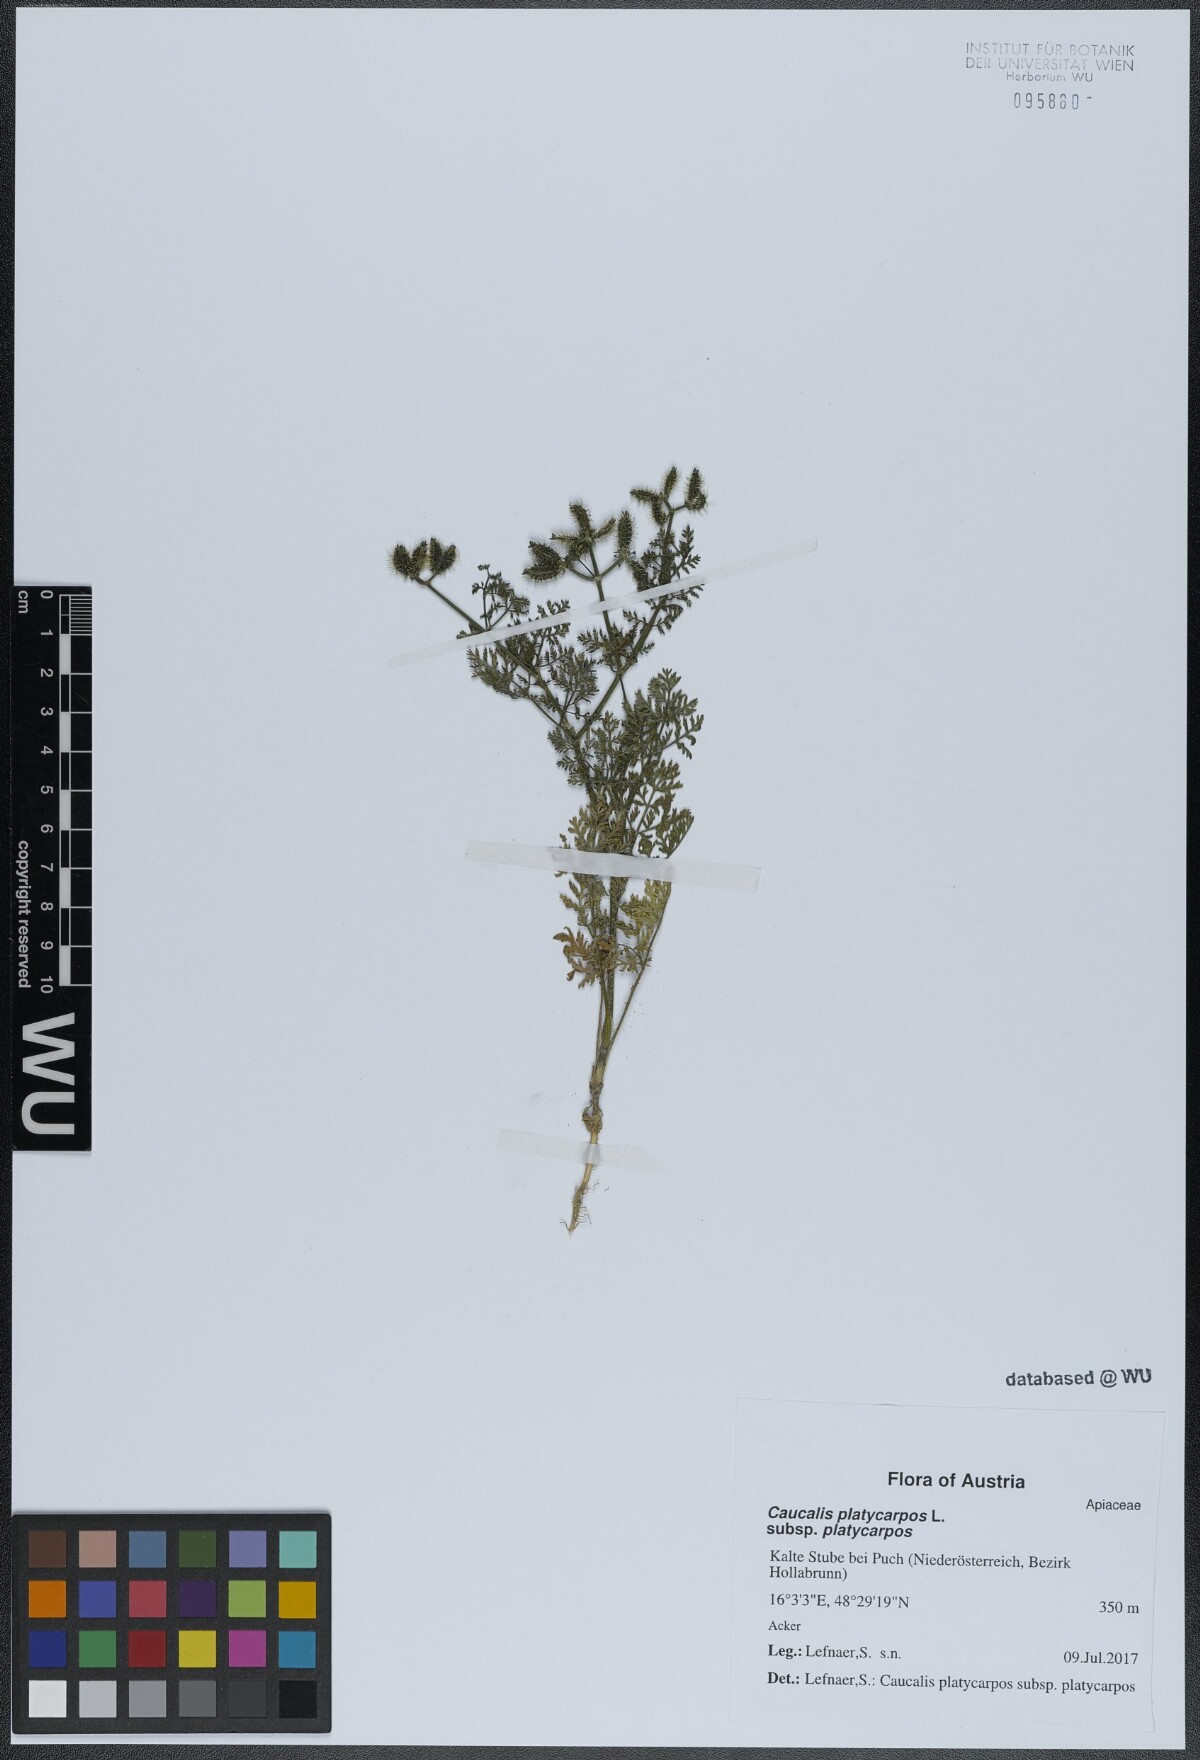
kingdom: Plantae
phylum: Tracheophyta
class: Magnoliopsida
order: Apiales
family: Apiaceae
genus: Caucalis
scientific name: Caucalis platycarpos
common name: Small bur-parsley
